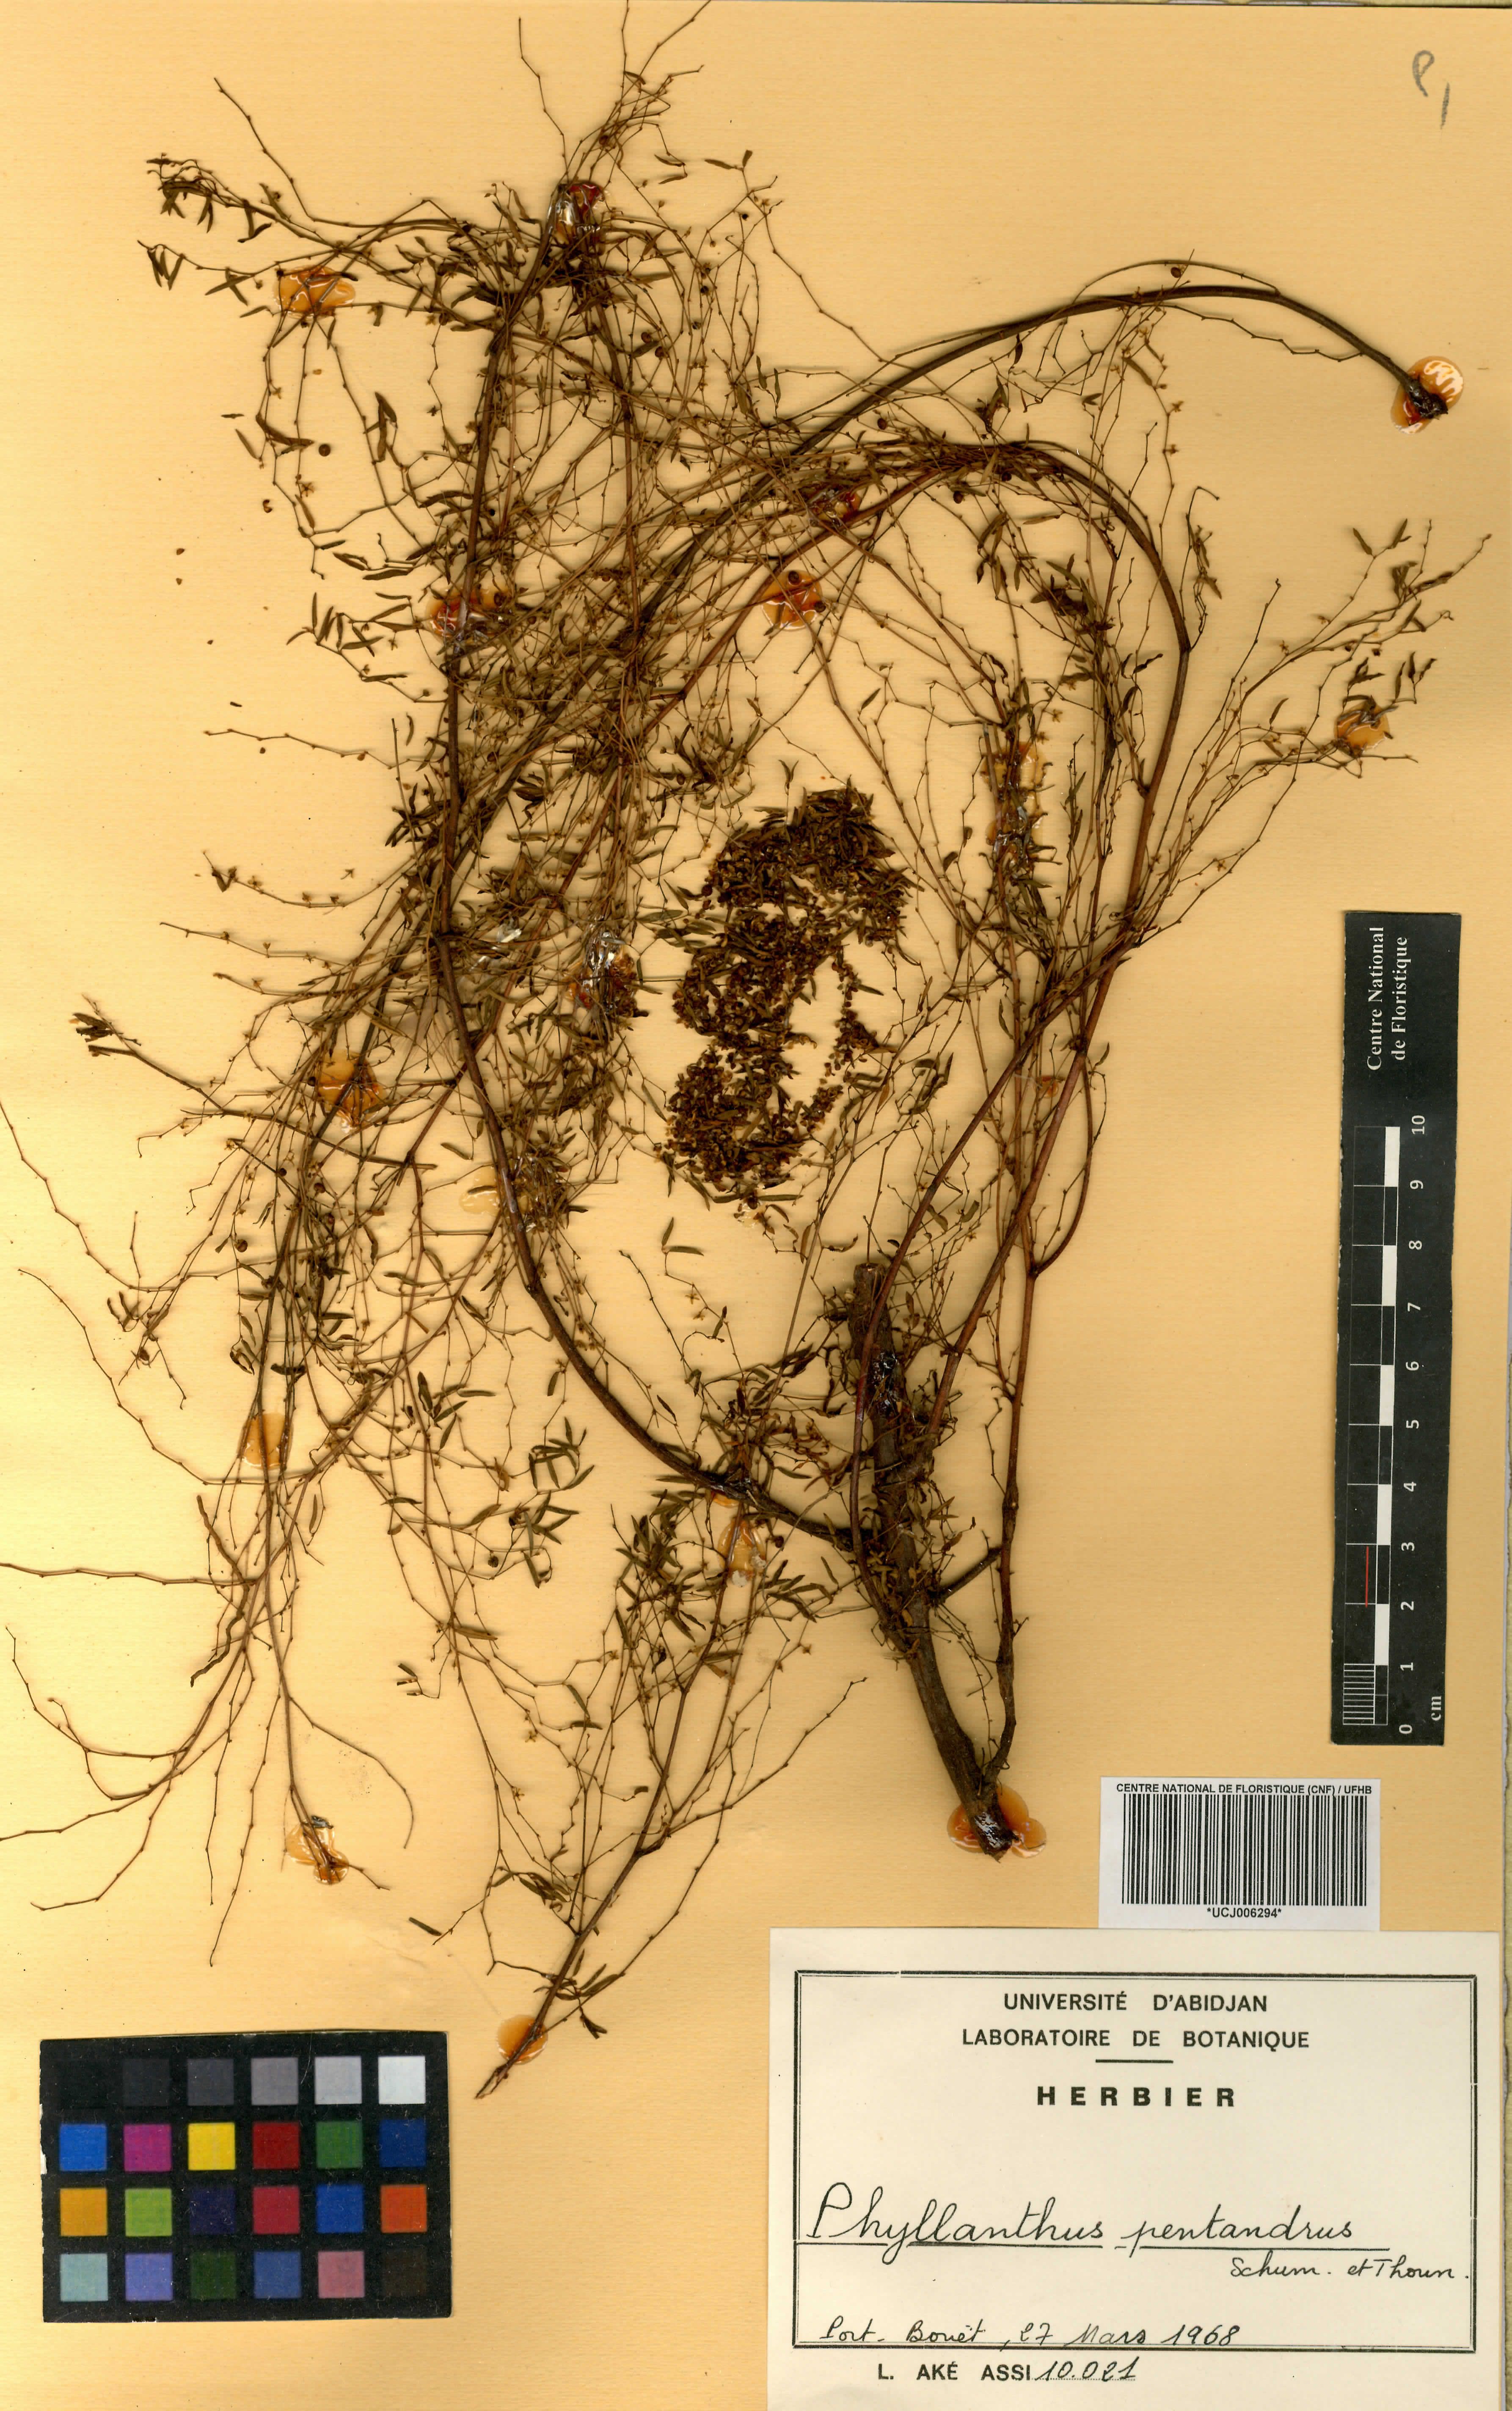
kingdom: Plantae
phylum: Tracheophyta
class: Magnoliopsida
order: Malpighiales
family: Phyllanthaceae
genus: Phyllanthus
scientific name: Phyllanthus pentandrus
